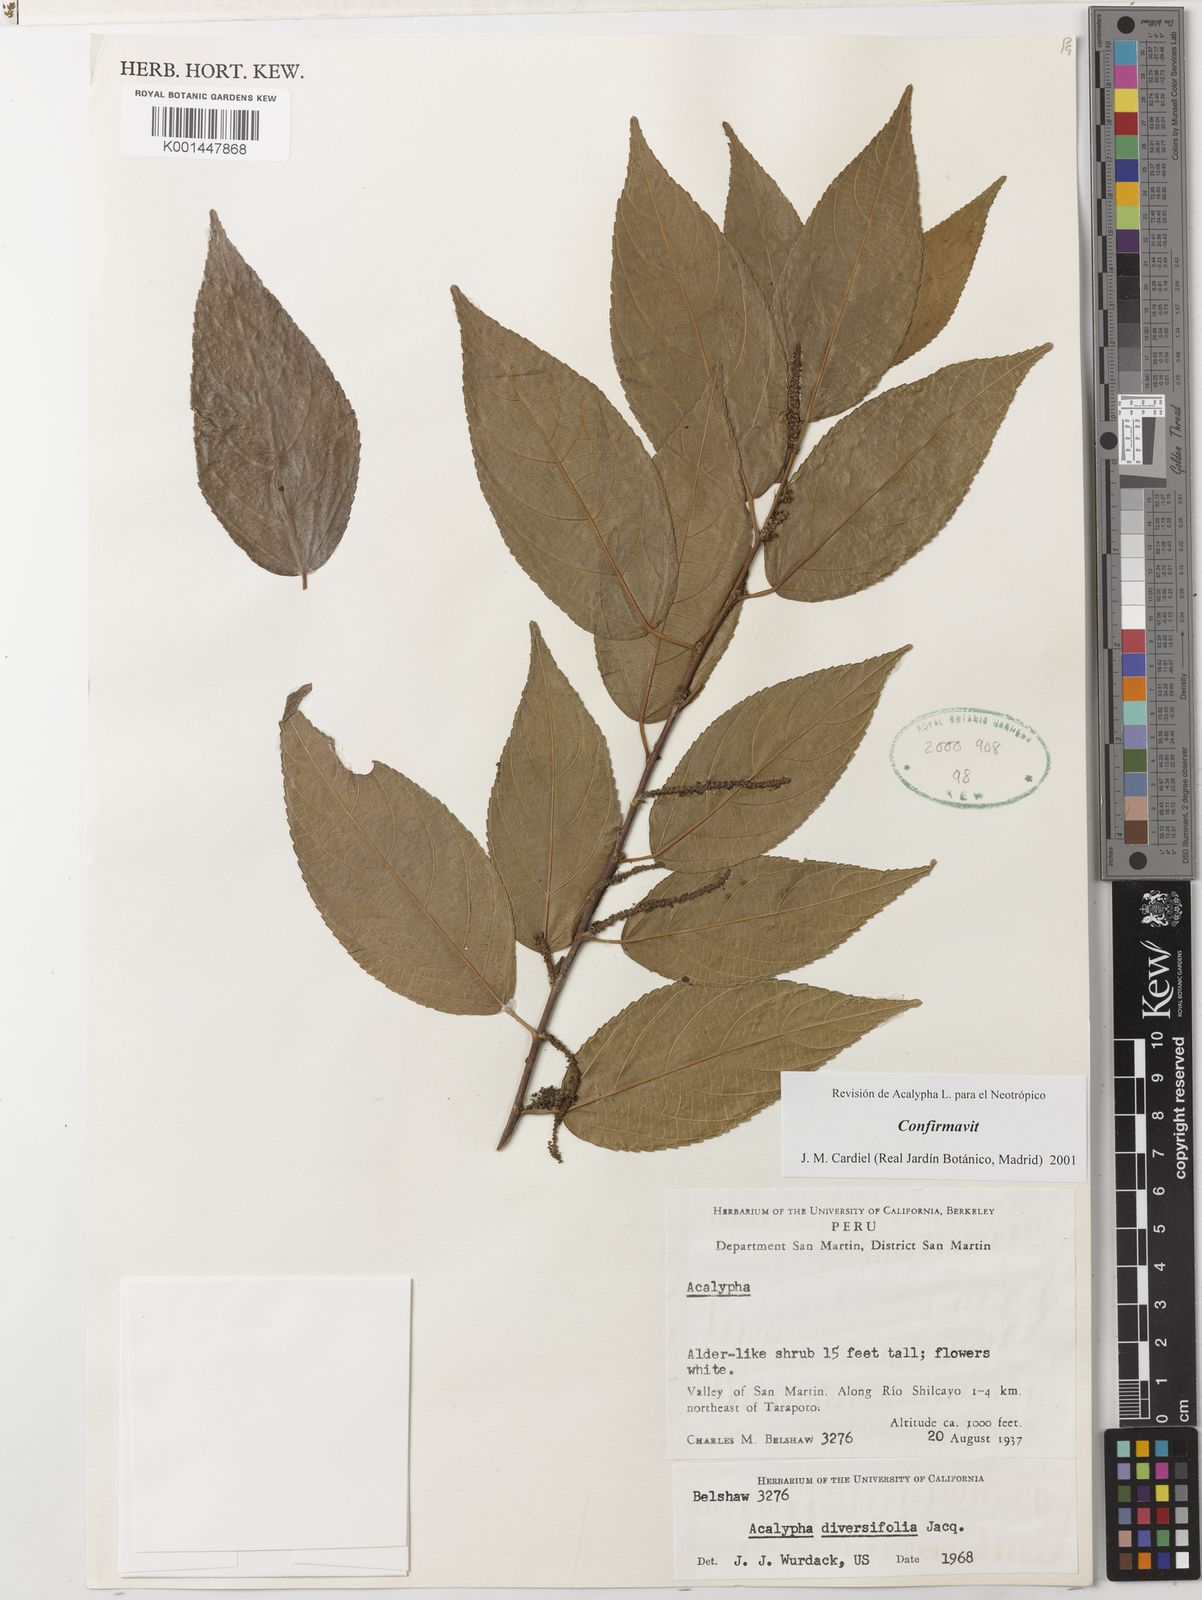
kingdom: Plantae
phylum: Tracheophyta
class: Magnoliopsida
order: Malpighiales
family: Euphorbiaceae
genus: Acalypha
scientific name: Acalypha diversifolia
